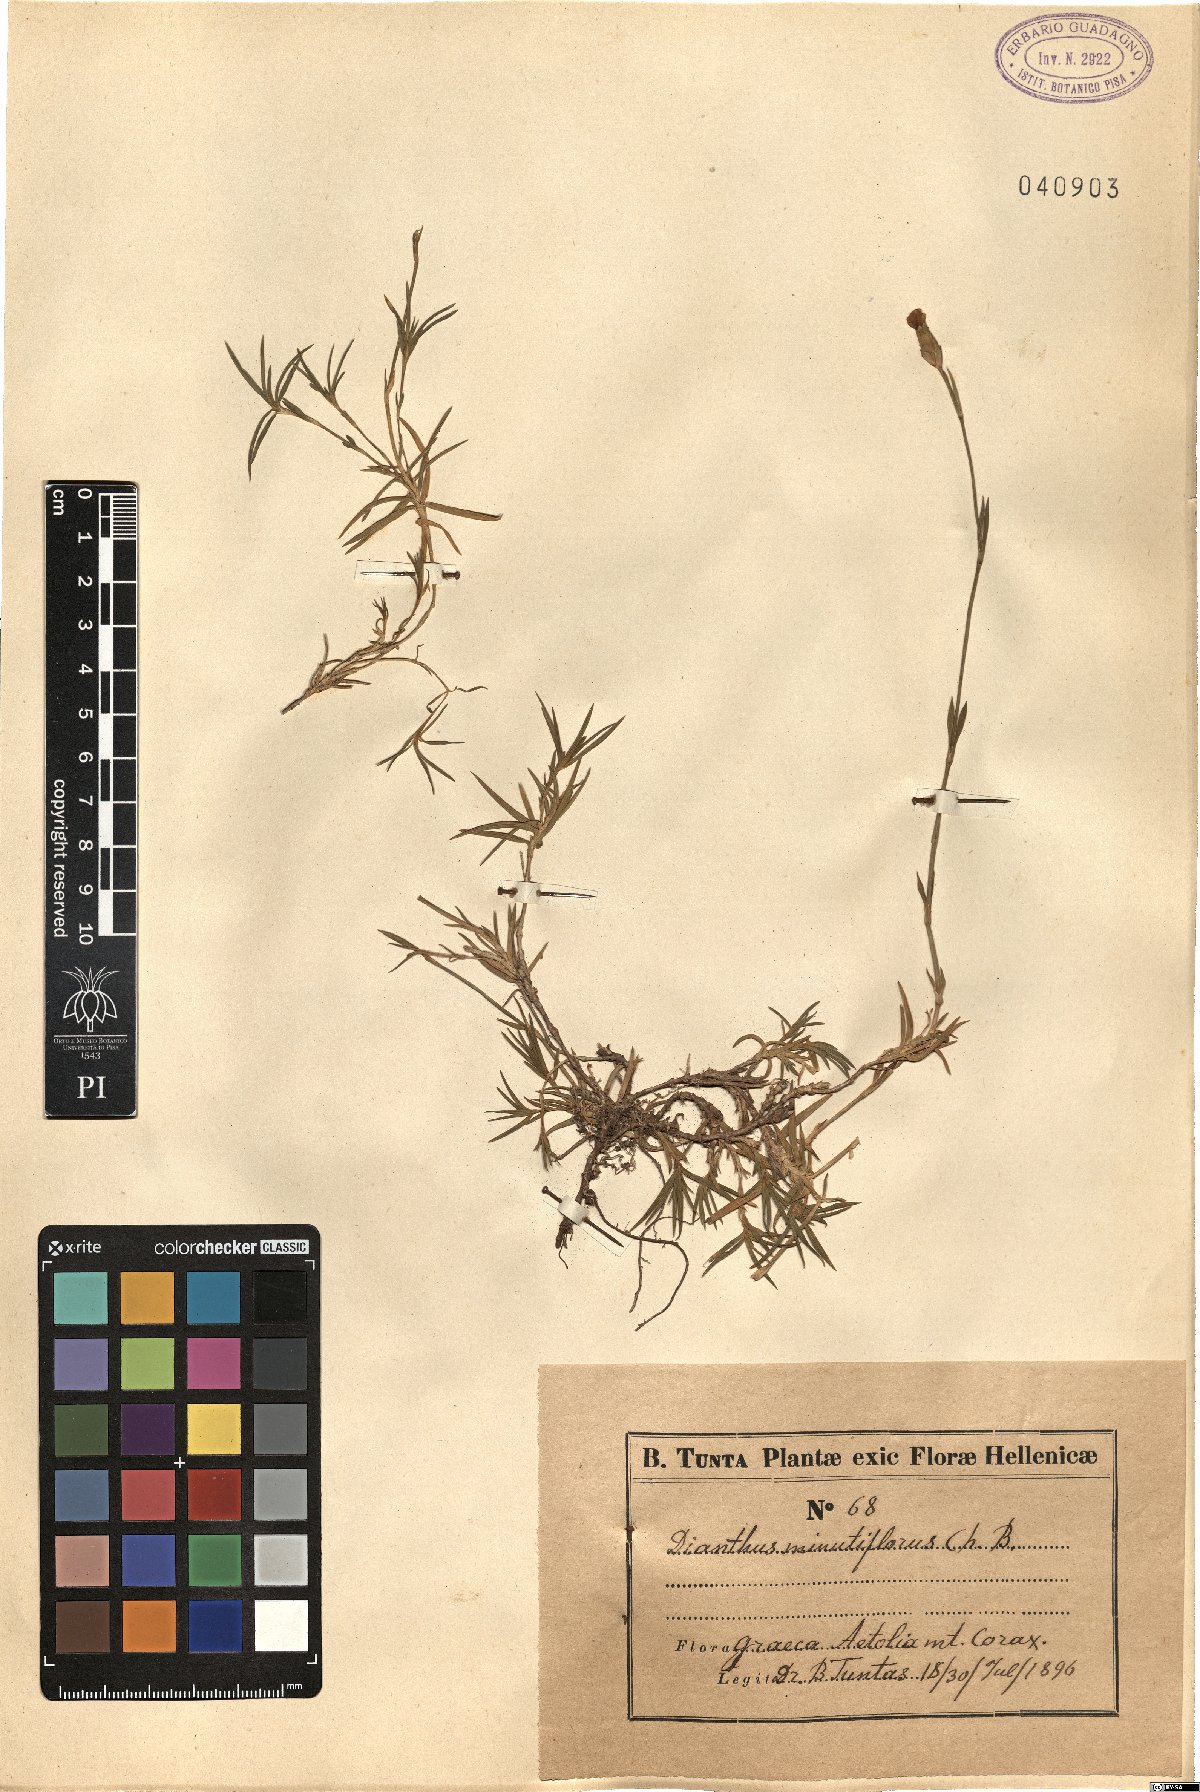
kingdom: Plantae
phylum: Tracheophyta
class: Magnoliopsida
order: Caryophyllales
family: Caryophyllaceae
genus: Dianthus
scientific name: Dianthus integer
